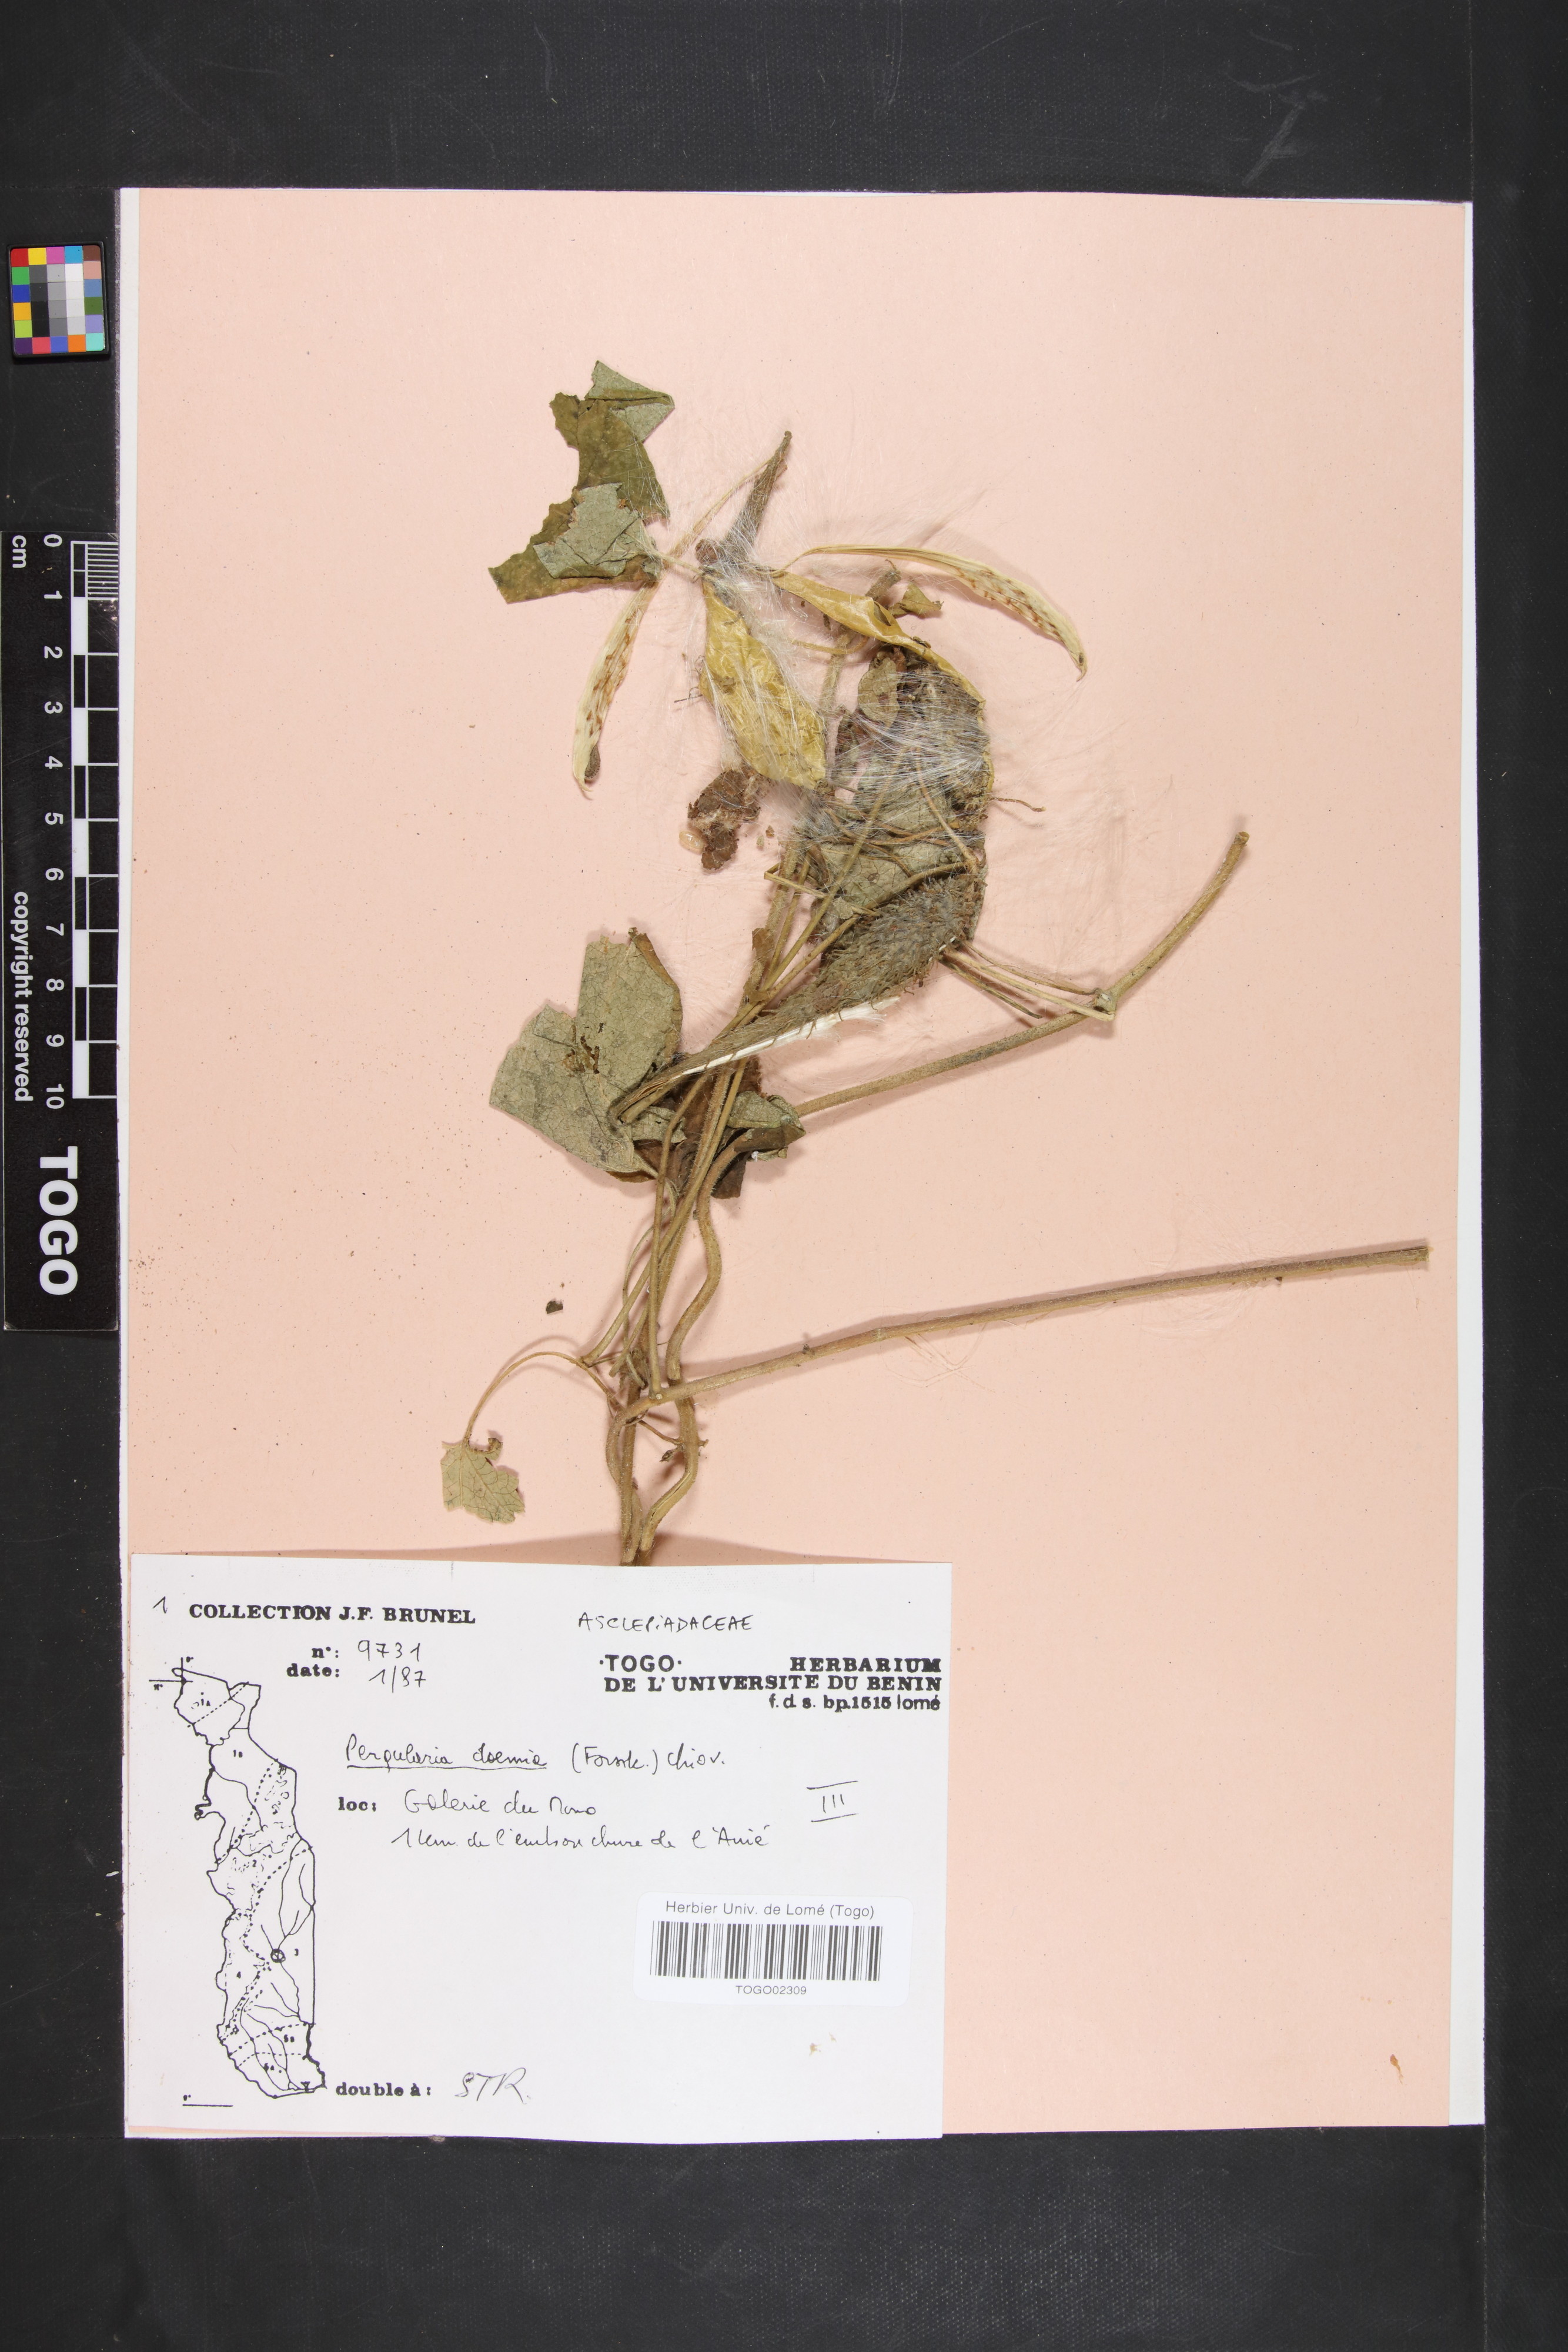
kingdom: Plantae
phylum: Tracheophyta
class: Magnoliopsida
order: Gentianales
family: Apocynaceae
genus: Pergularia
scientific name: Pergularia daemia
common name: Trellis-vine
